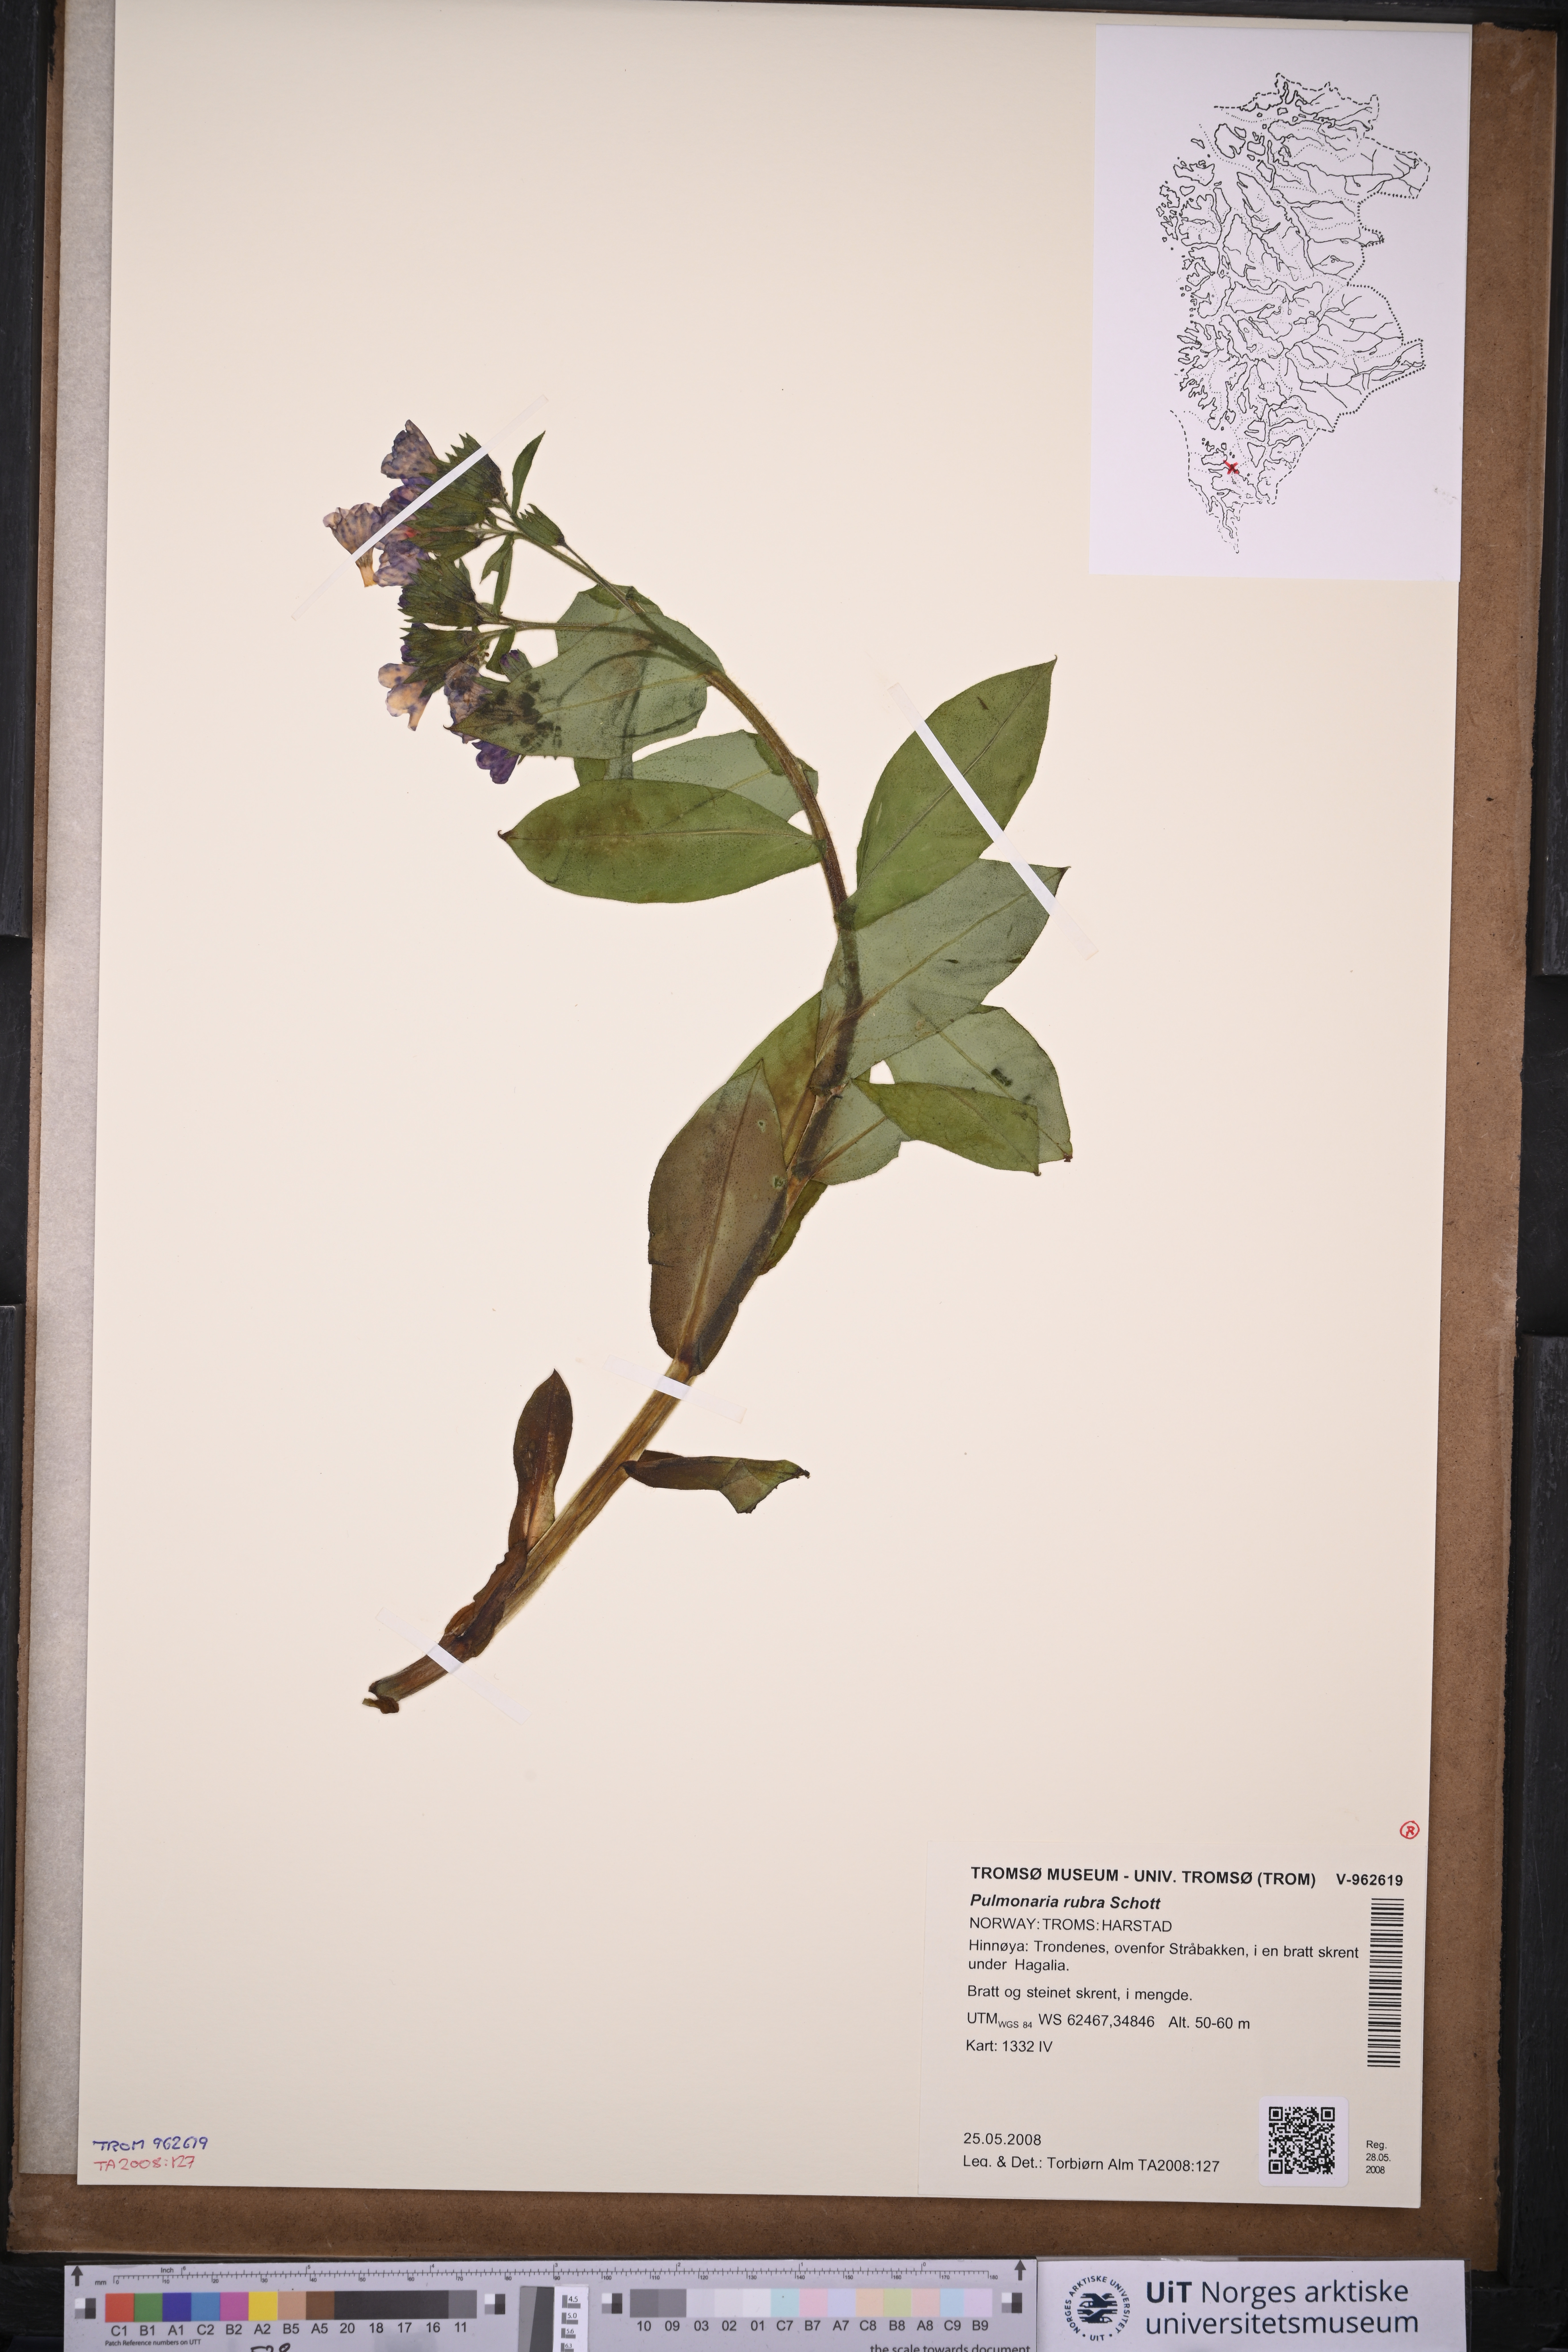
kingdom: Plantae
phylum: Tracheophyta
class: Magnoliopsida
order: Boraginales
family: Boraginaceae
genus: Pulmonaria
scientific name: Pulmonaria rubra
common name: Red lungwort
